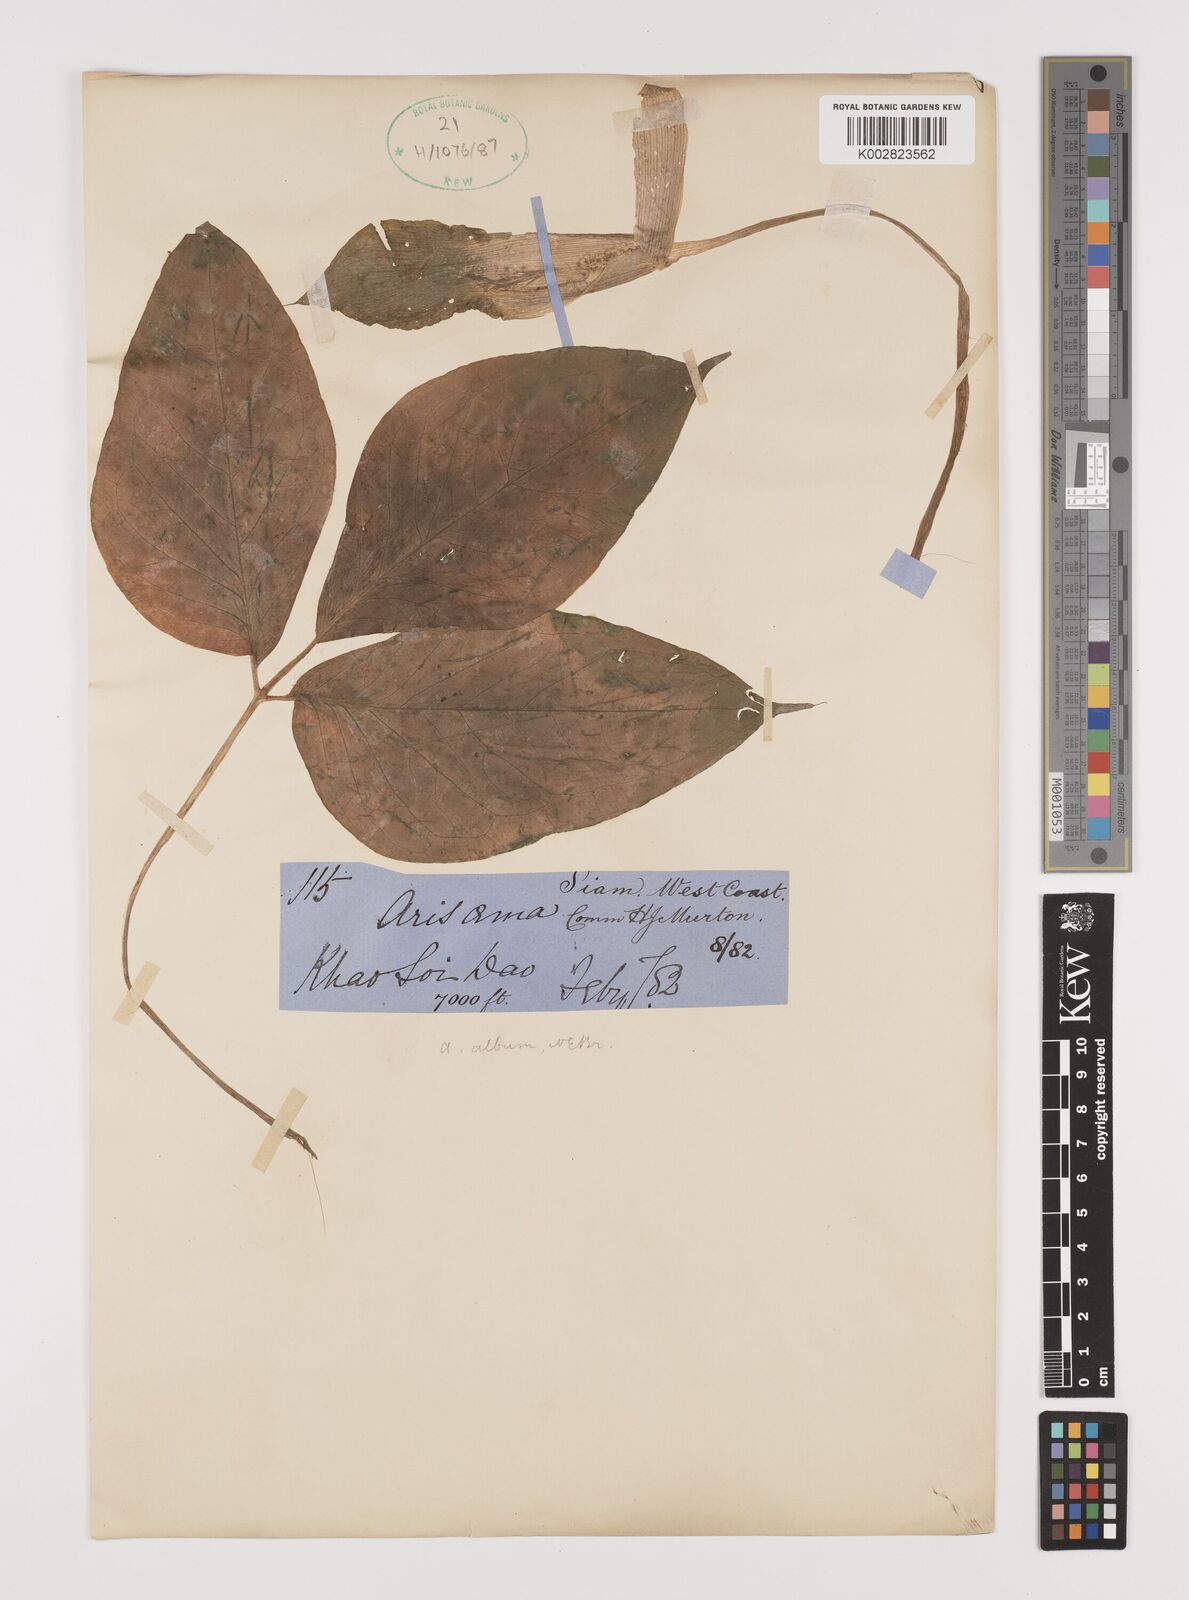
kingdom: Plantae
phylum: Tracheophyta
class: Liliopsida
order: Alismatales
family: Araceae
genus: Arisaema
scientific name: Arisaema album
